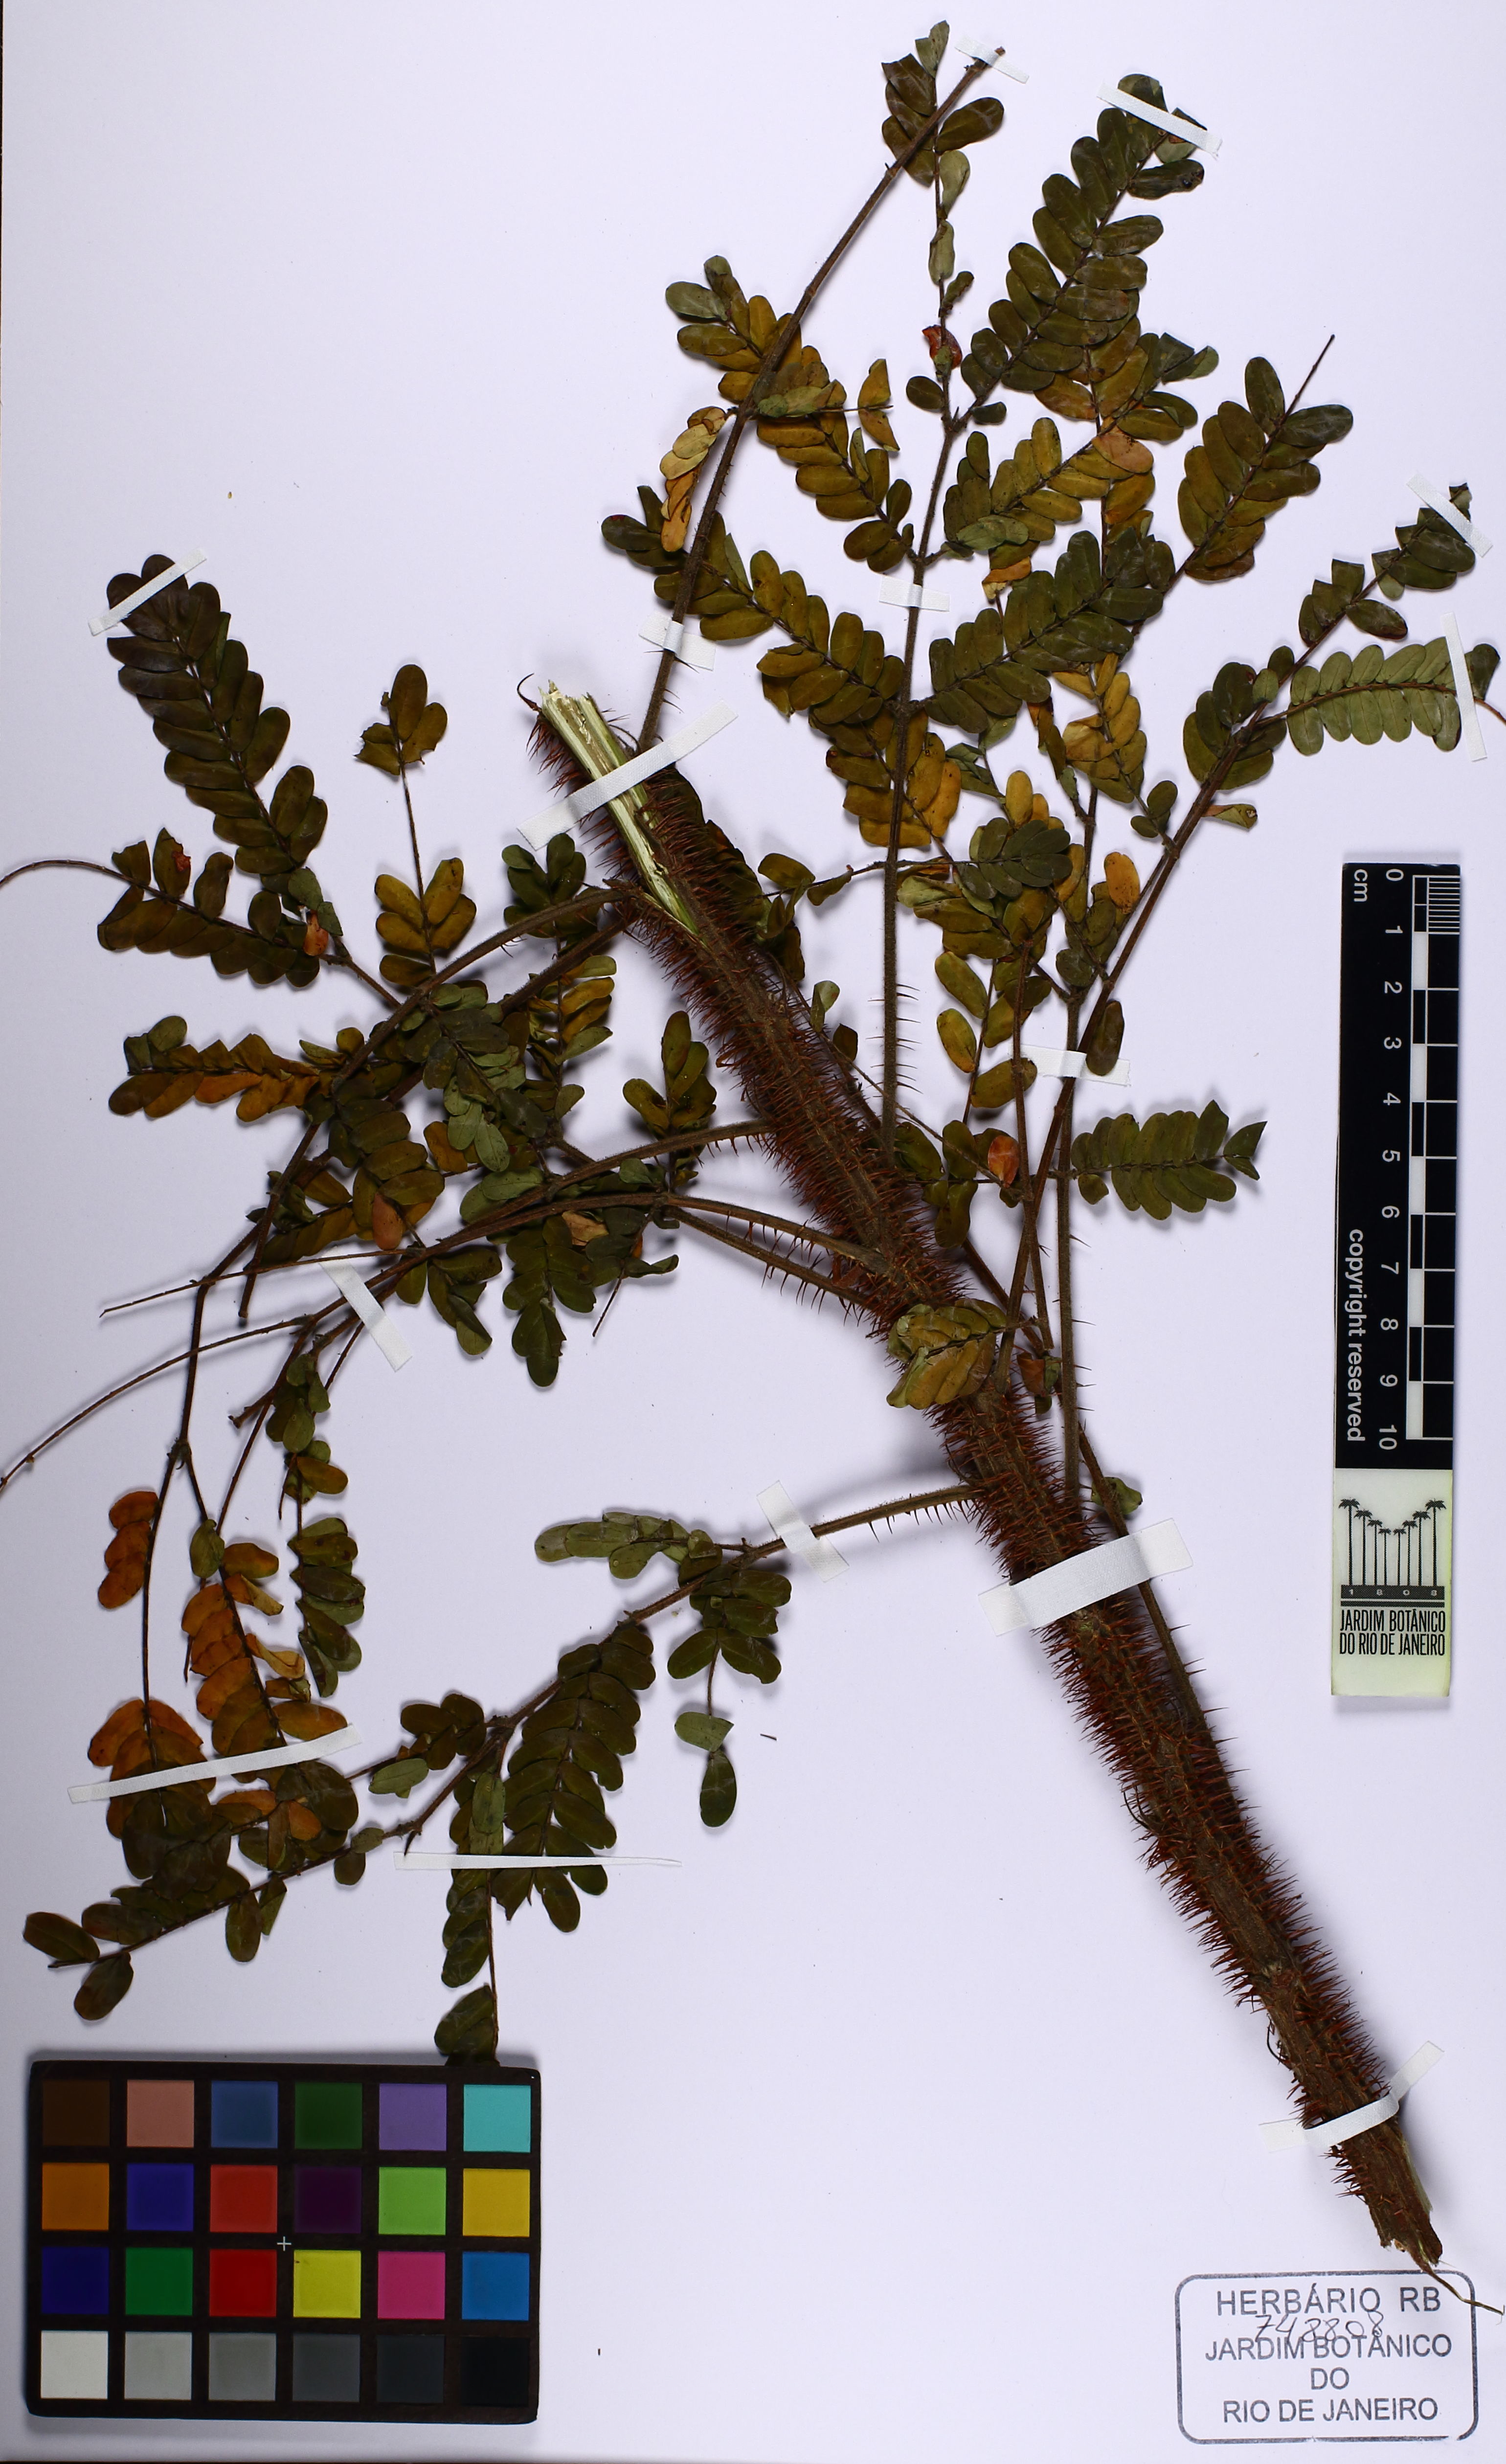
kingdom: Plantae
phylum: Tracheophyta
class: Magnoliopsida
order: Fabales
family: Fabaceae
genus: Mimosa
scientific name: Mimosa echinocaula
